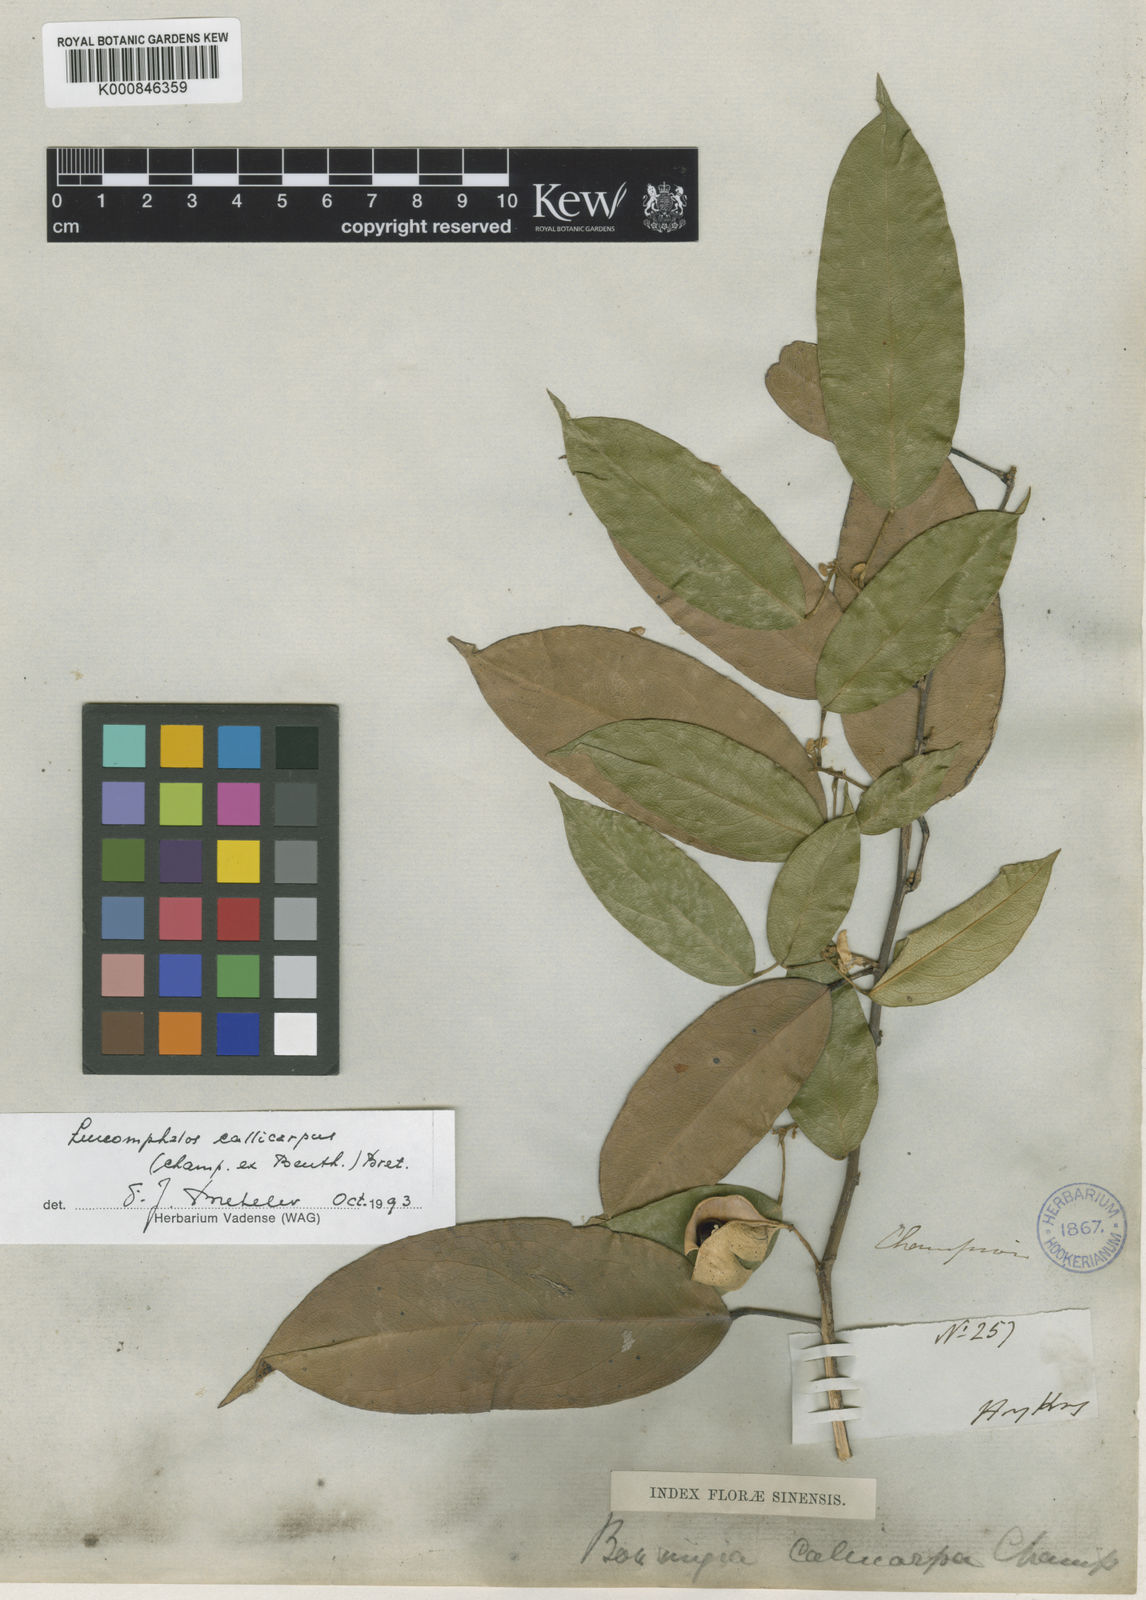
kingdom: Plantae
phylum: Tracheophyta
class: Magnoliopsida
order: Fabales
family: Fabaceae
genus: Bowringia
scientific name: Bowringia callicarpa
